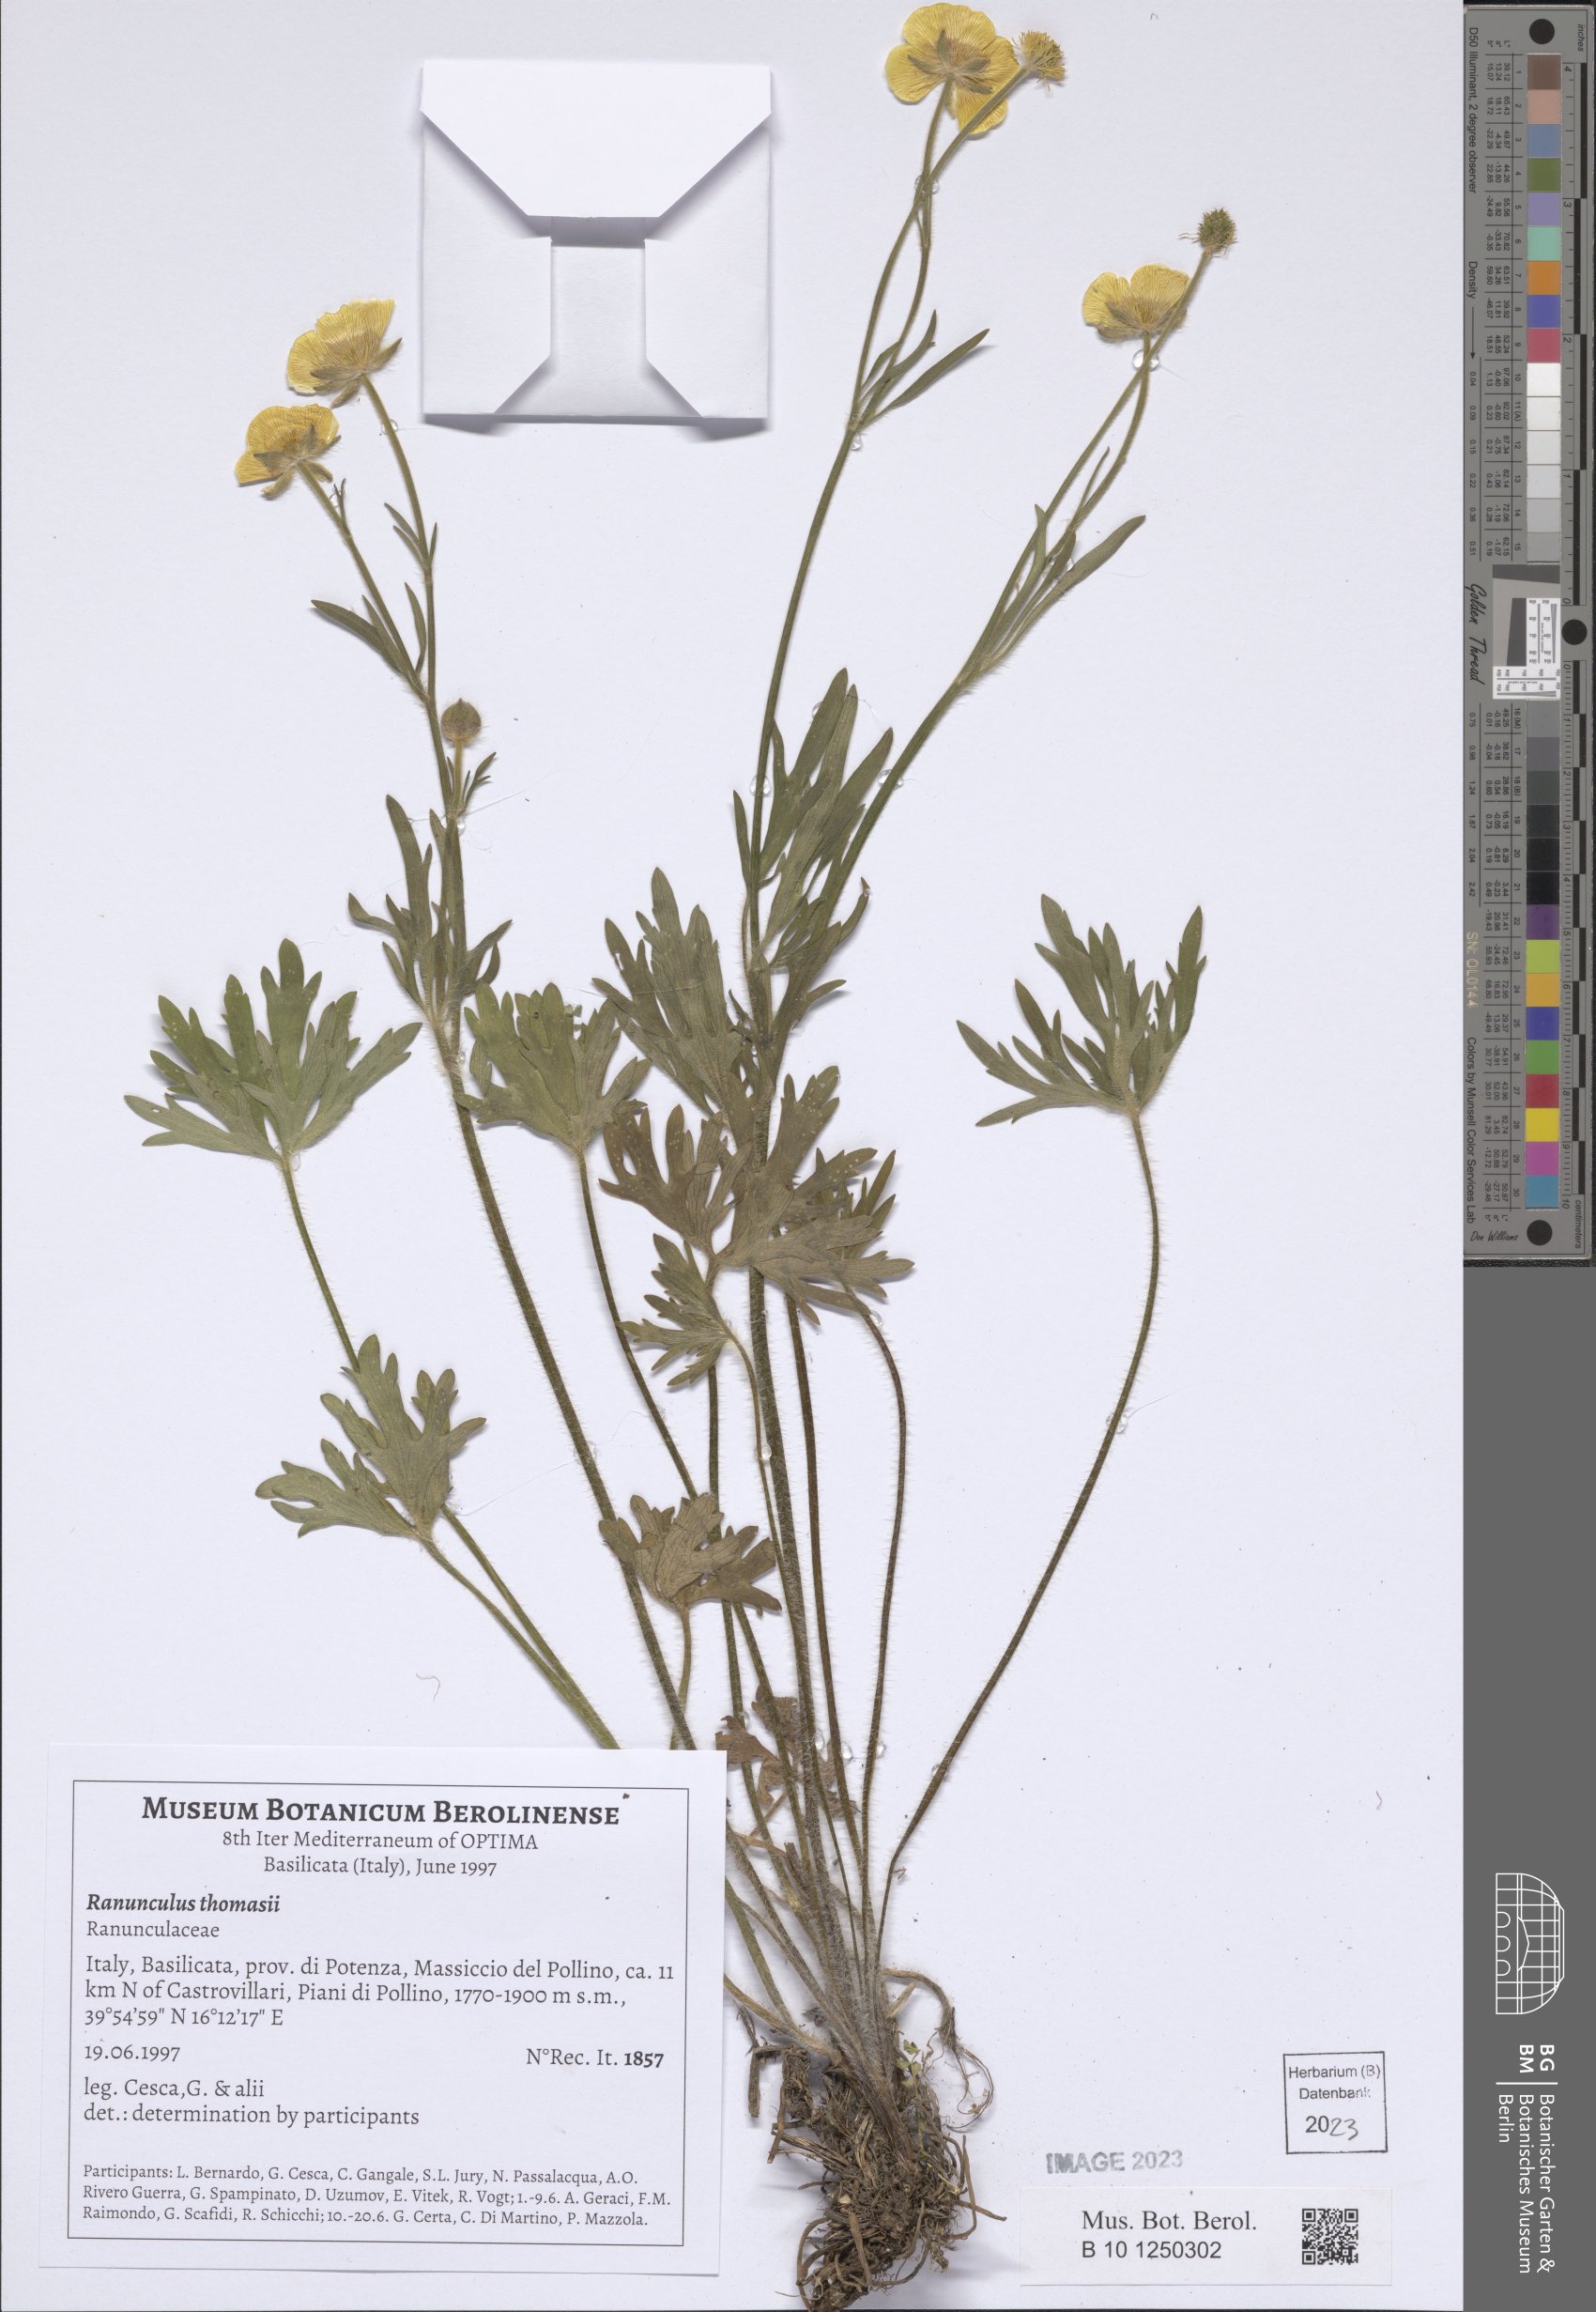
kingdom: Plantae
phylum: Tracheophyta
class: Magnoliopsida
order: Ranunculales
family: Ranunculaceae
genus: Ranunculus
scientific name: Ranunculus polyanthemos
